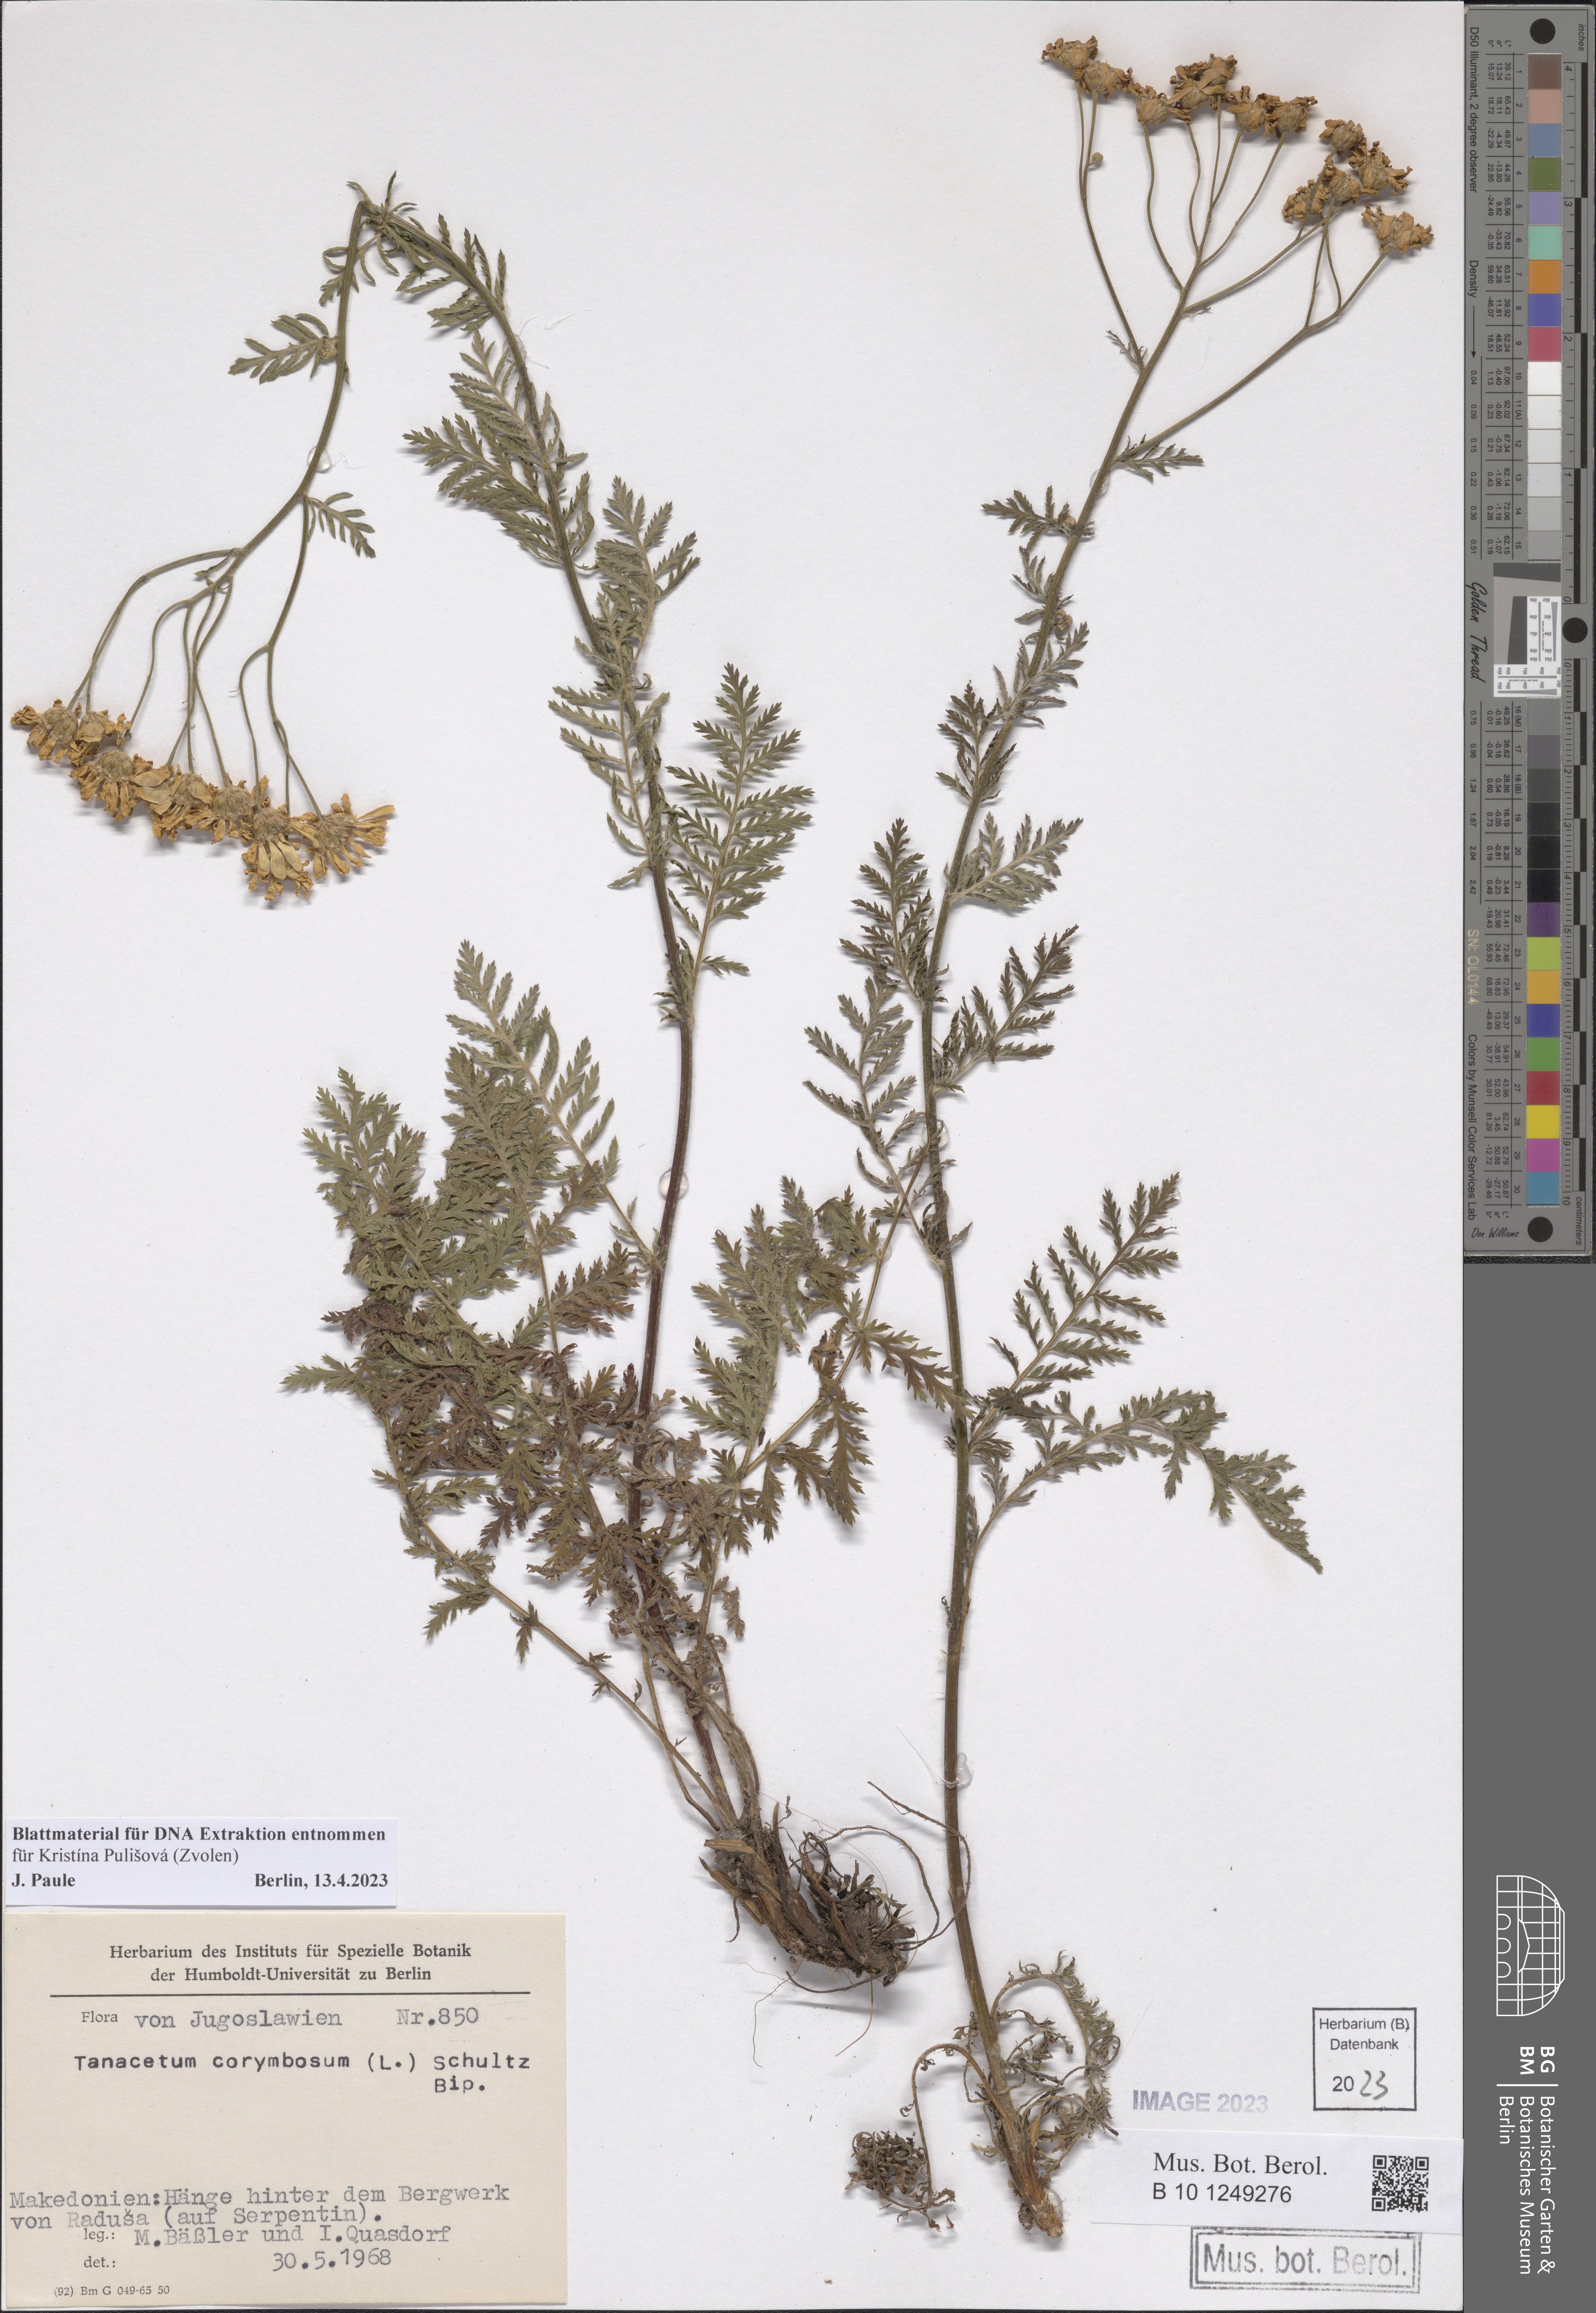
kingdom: Plantae
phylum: Tracheophyta
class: Magnoliopsida
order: Asterales
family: Asteraceae
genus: Tanacetum
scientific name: Tanacetum corymbosum
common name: Scentless feverfew
